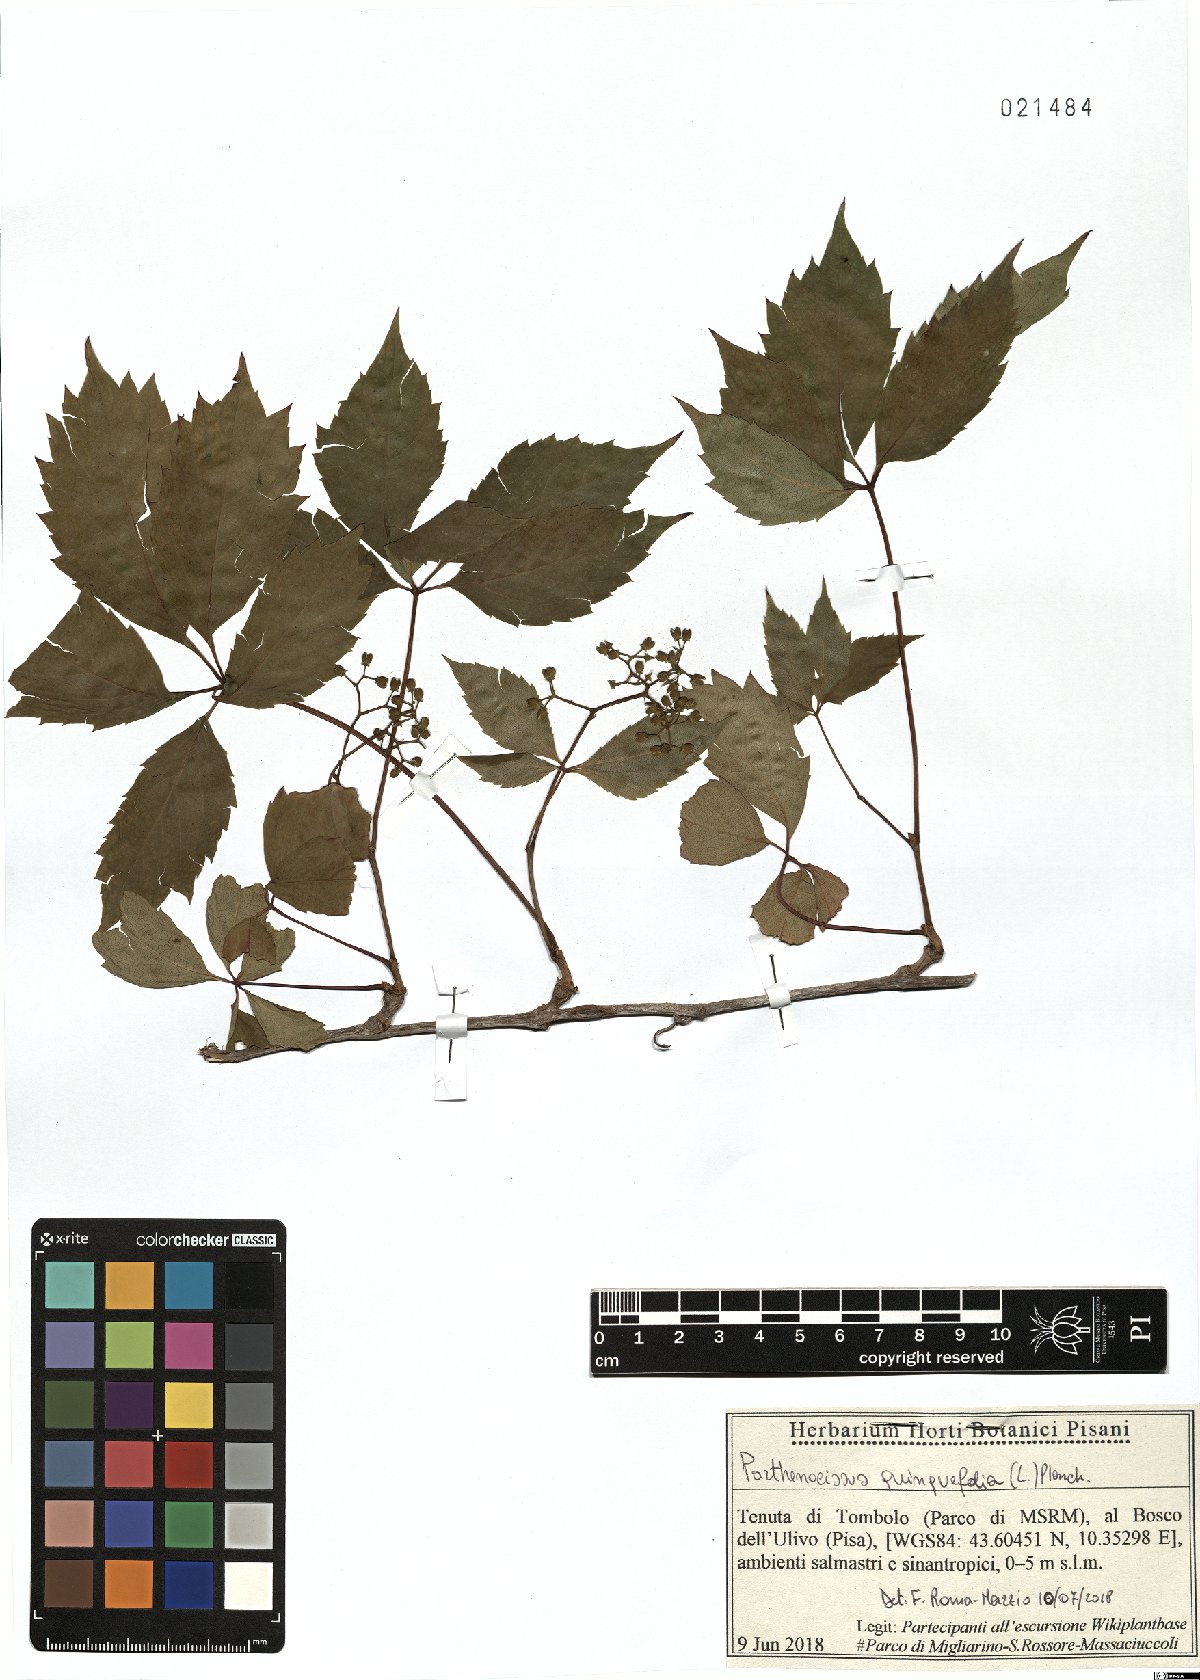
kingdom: Plantae
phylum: Tracheophyta
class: Magnoliopsida
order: Vitales
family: Vitaceae
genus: Parthenocissus
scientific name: Parthenocissus inserta
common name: False virginia-creeper
